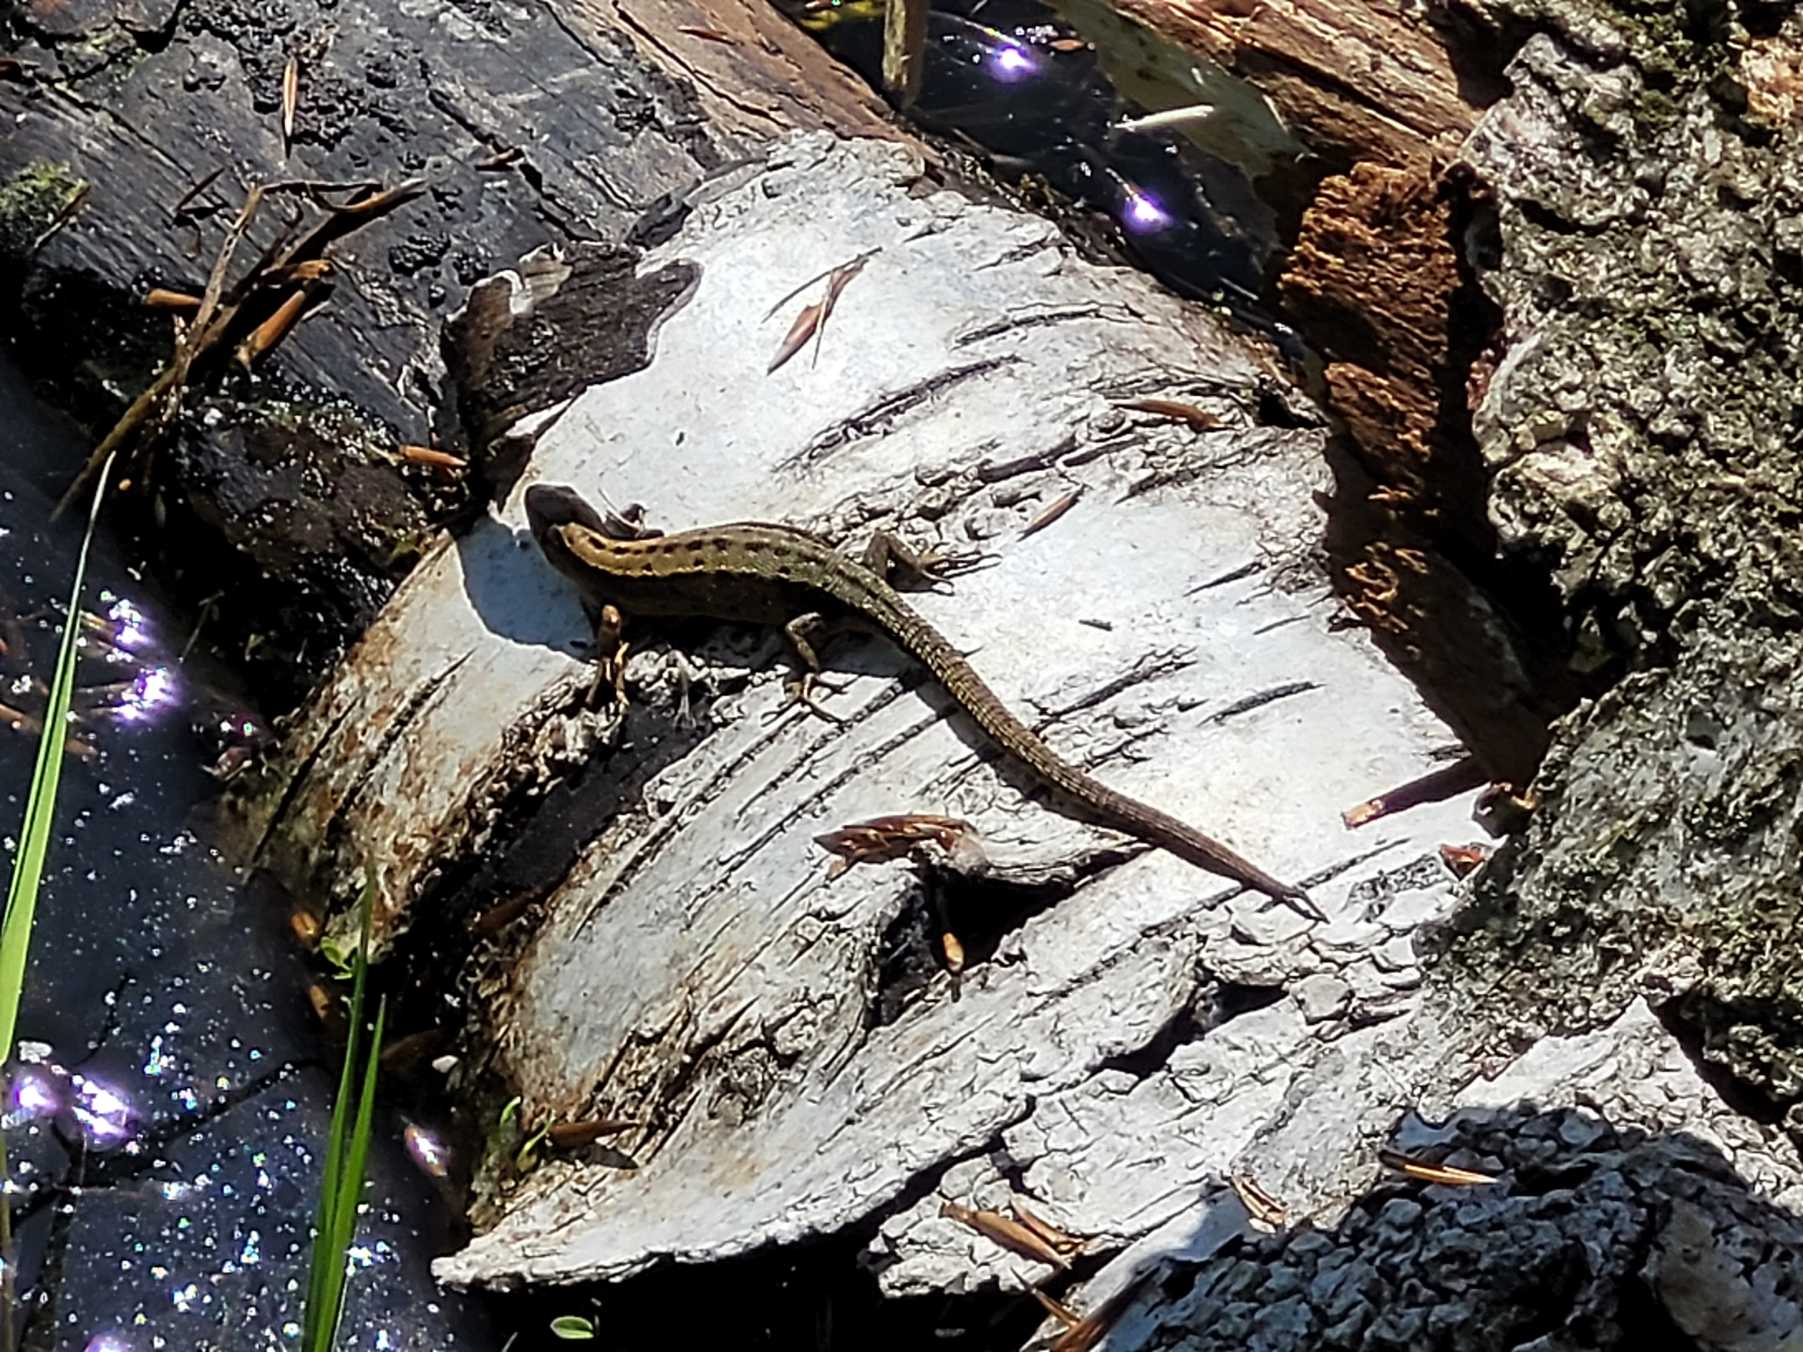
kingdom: Animalia
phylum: Chordata
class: Squamata
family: Lacertidae
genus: Zootoca
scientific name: Zootoca vivipara
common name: Skovfirben
